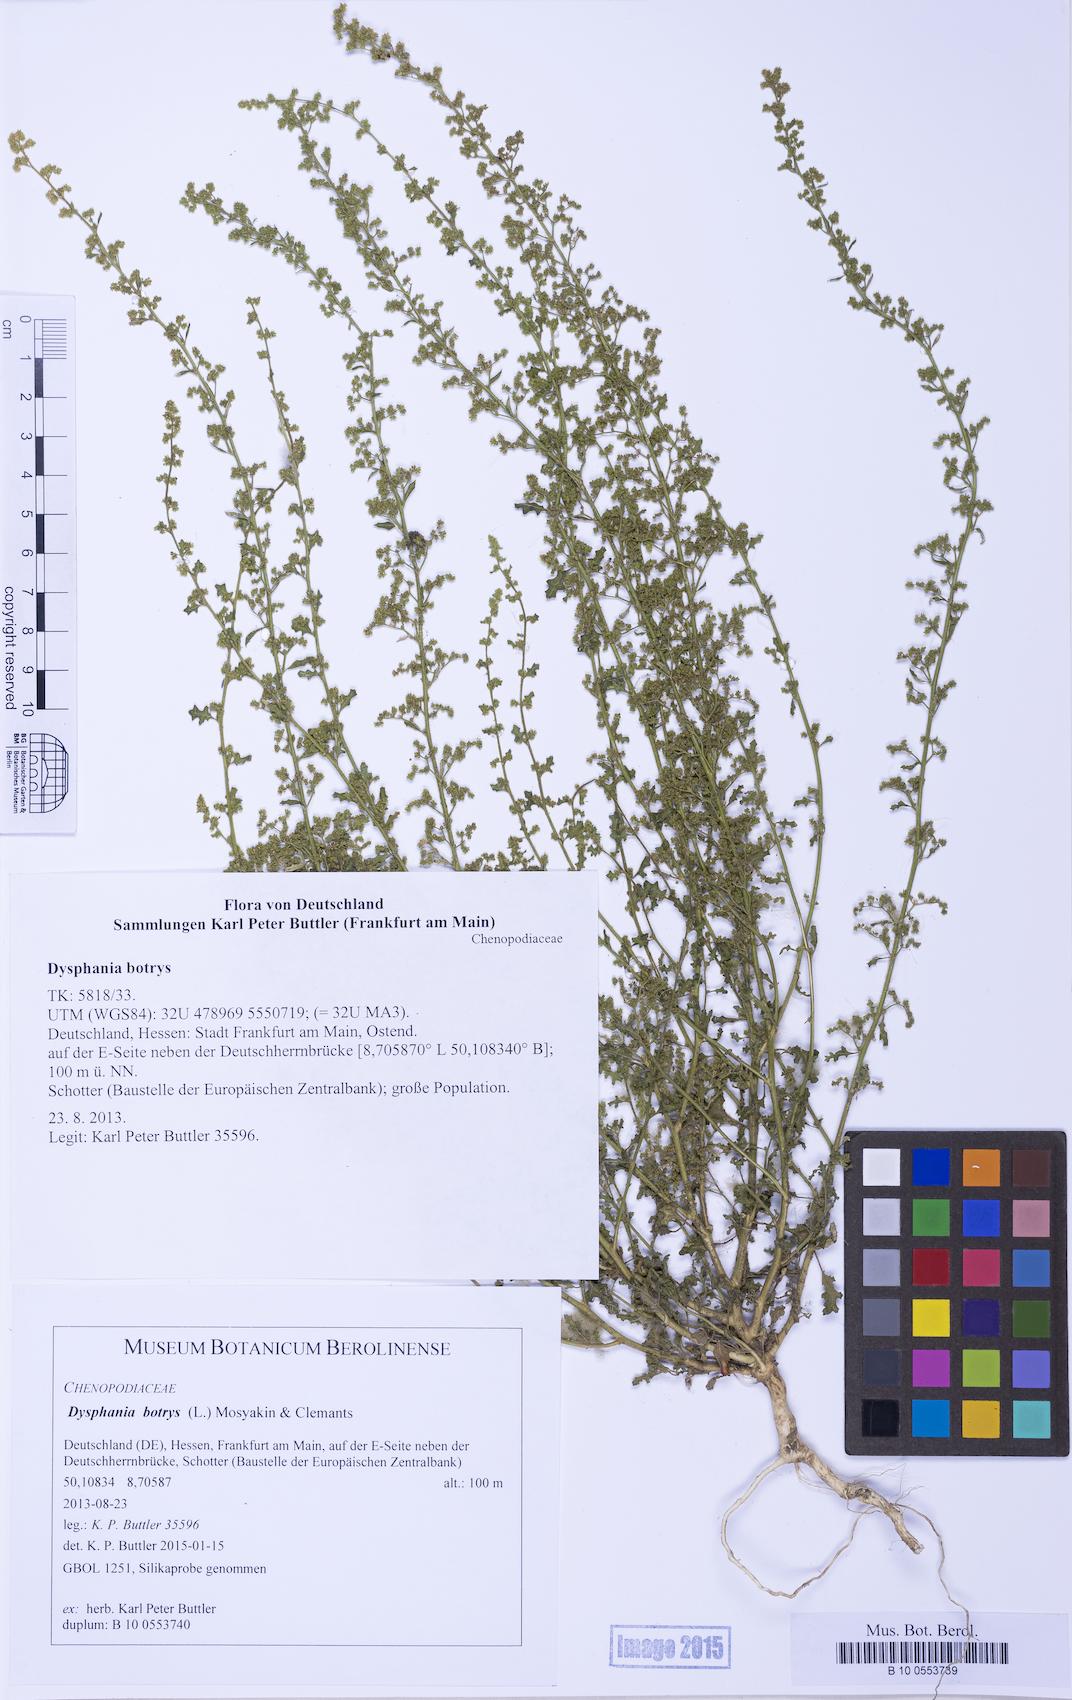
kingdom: Plantae
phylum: Tracheophyta
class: Magnoliopsida
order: Caryophyllales
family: Amaranthaceae
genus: Dysphania
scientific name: Dysphania botrys
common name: Feather-geranium
